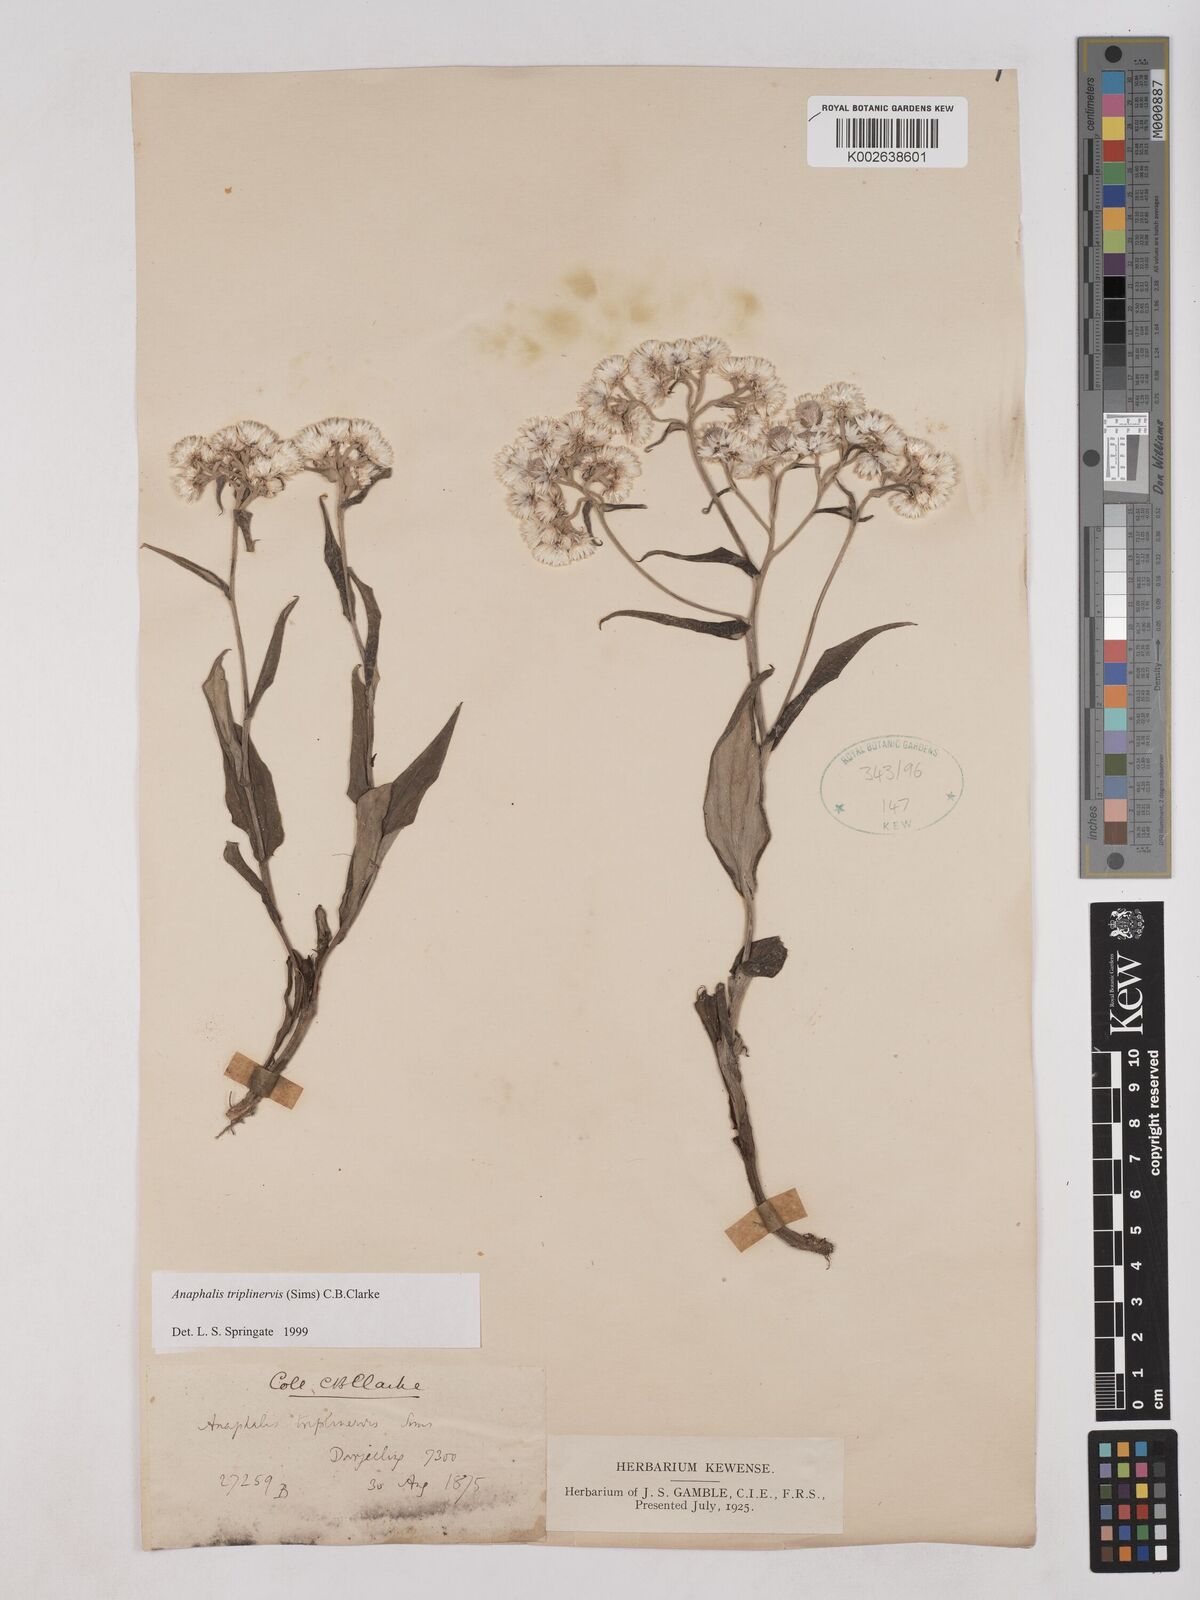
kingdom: Plantae
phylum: Tracheophyta
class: Magnoliopsida
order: Asterales
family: Asteraceae
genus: Anaphalis
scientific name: Anaphalis triplinervis
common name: Pearly everlasting
